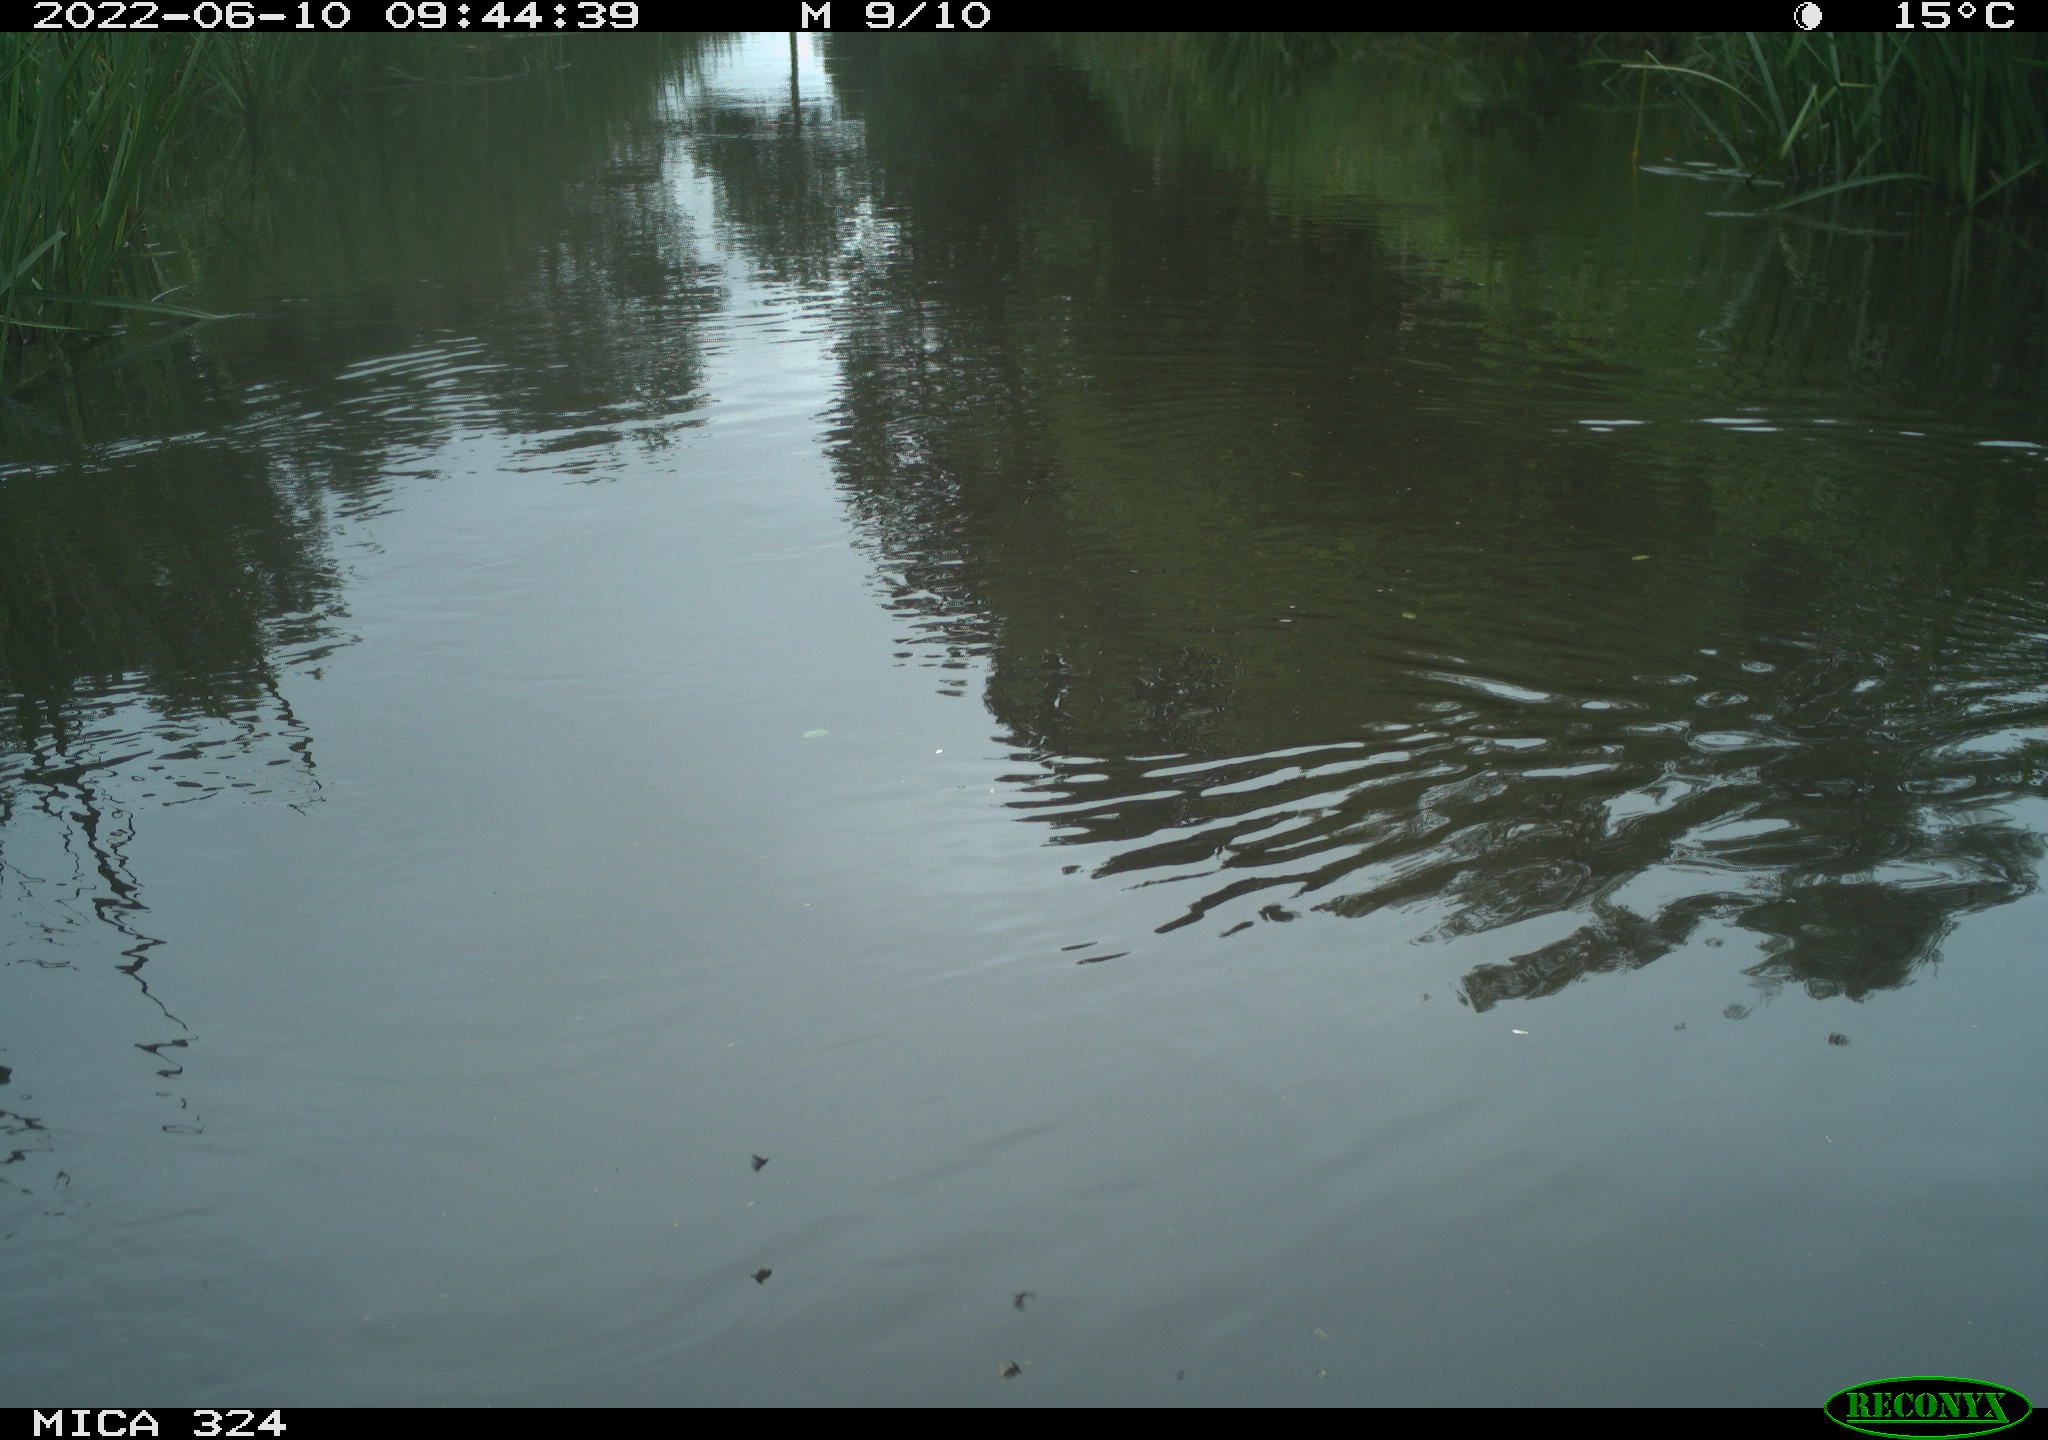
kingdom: Animalia
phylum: Chordata
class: Aves
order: Gruiformes
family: Rallidae
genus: Gallinula
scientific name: Gallinula chloropus
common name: Common moorhen
